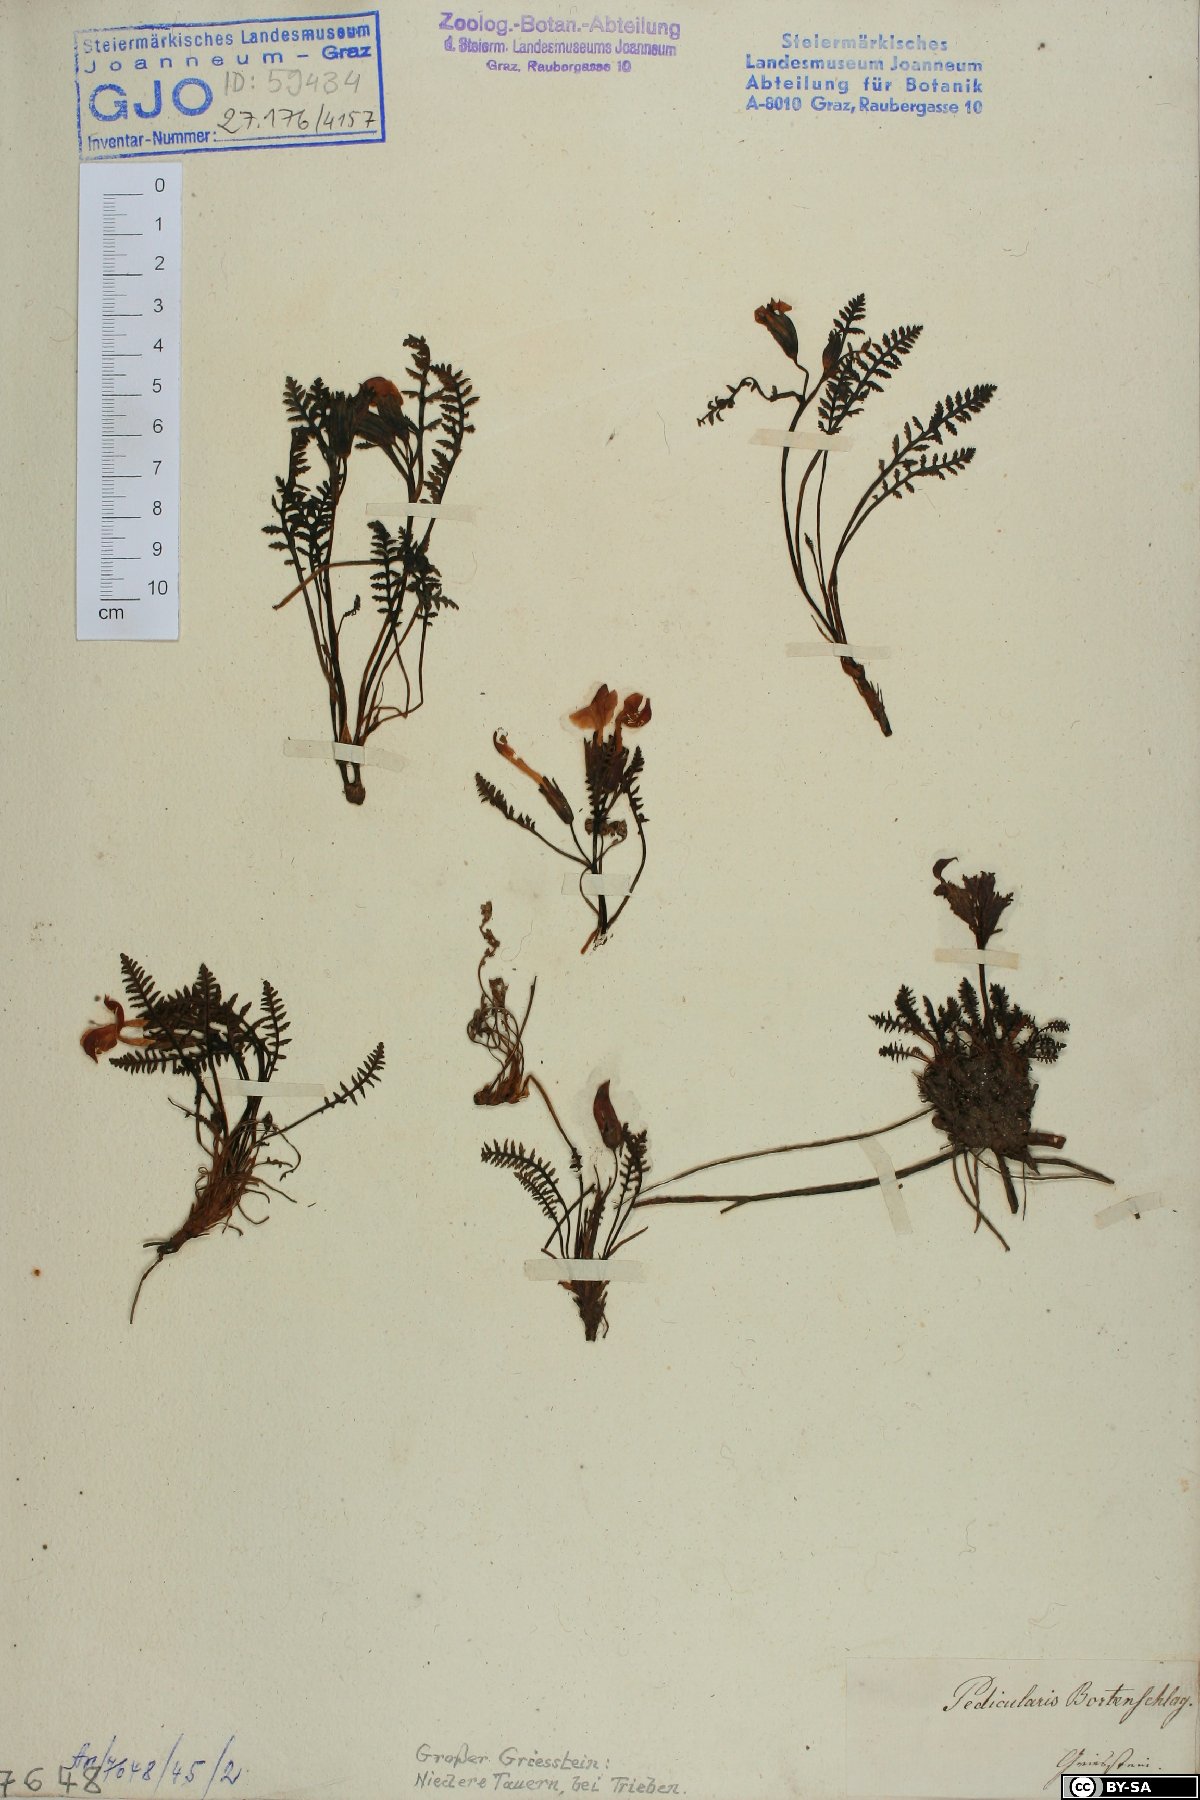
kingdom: Plantae
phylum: Tracheophyta
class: Magnoliopsida
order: Lamiales
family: Orobanchaceae
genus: Pedicularis
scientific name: Pedicularis portenschlagii
